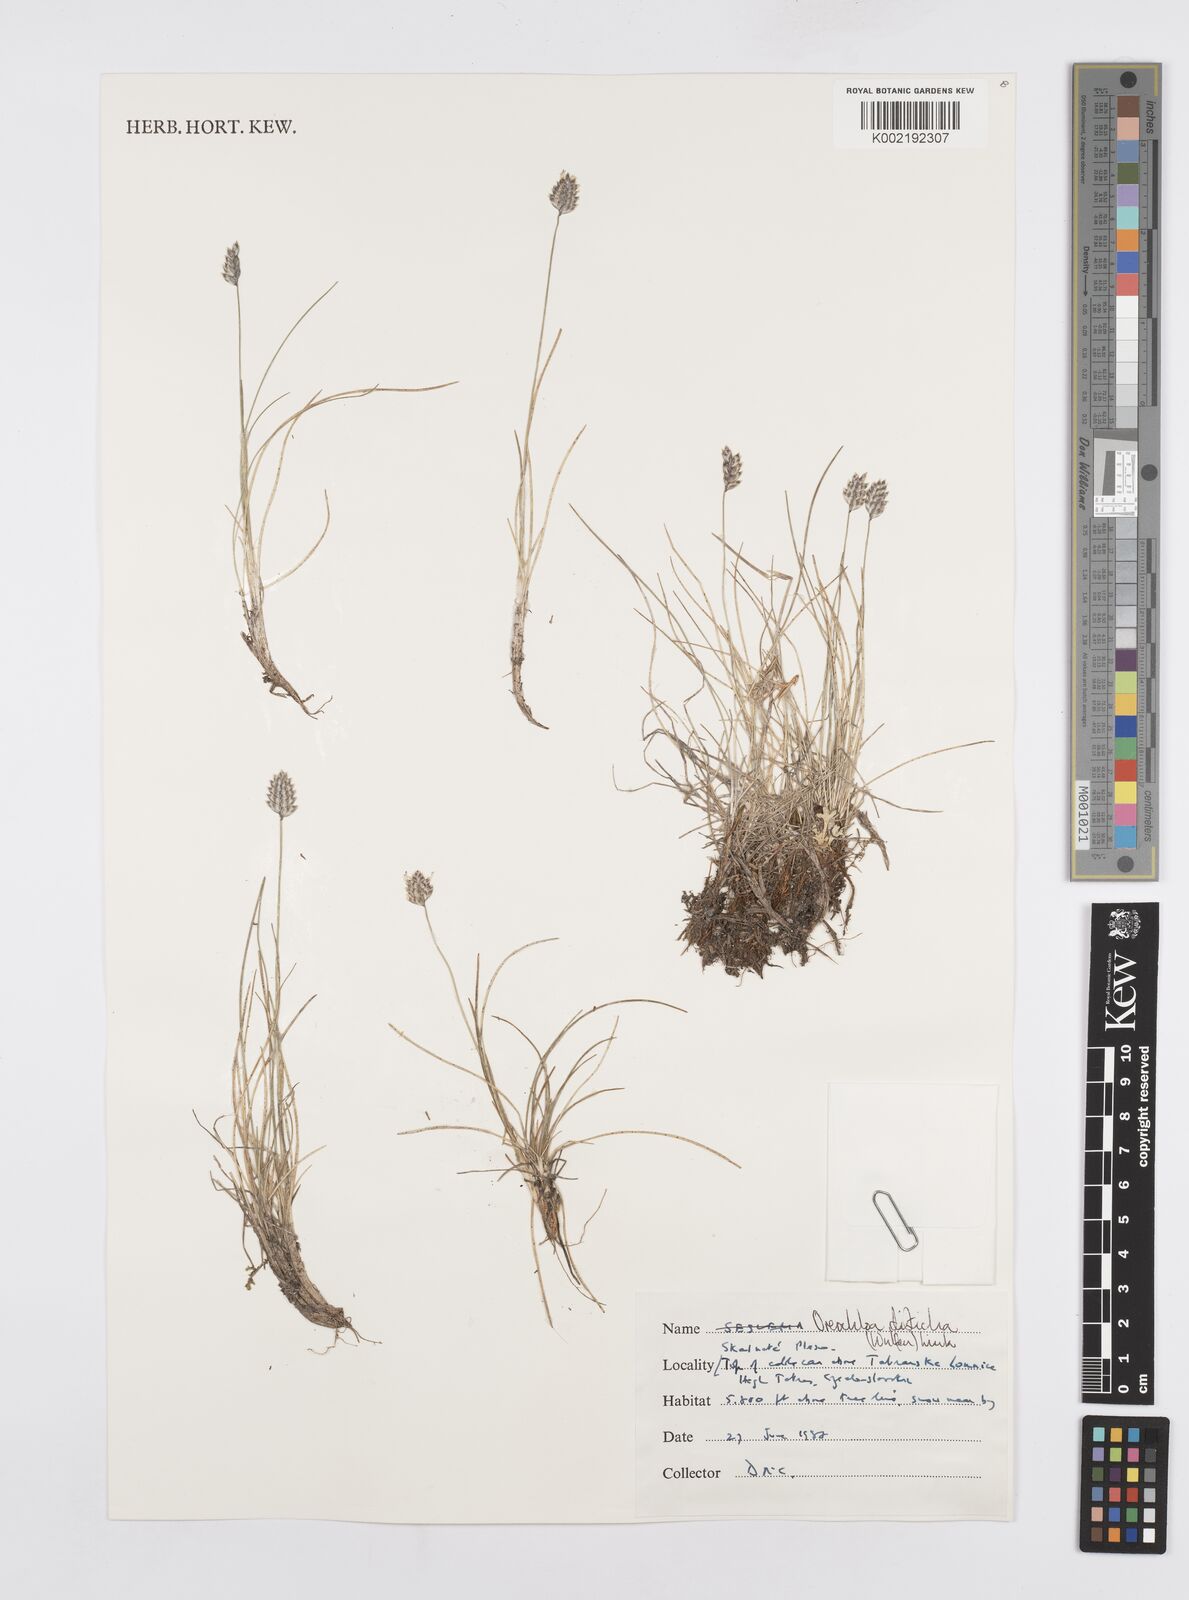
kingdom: Plantae
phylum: Tracheophyta
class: Liliopsida
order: Poales
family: Poaceae
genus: Oreochloa
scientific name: Oreochloa disticha
